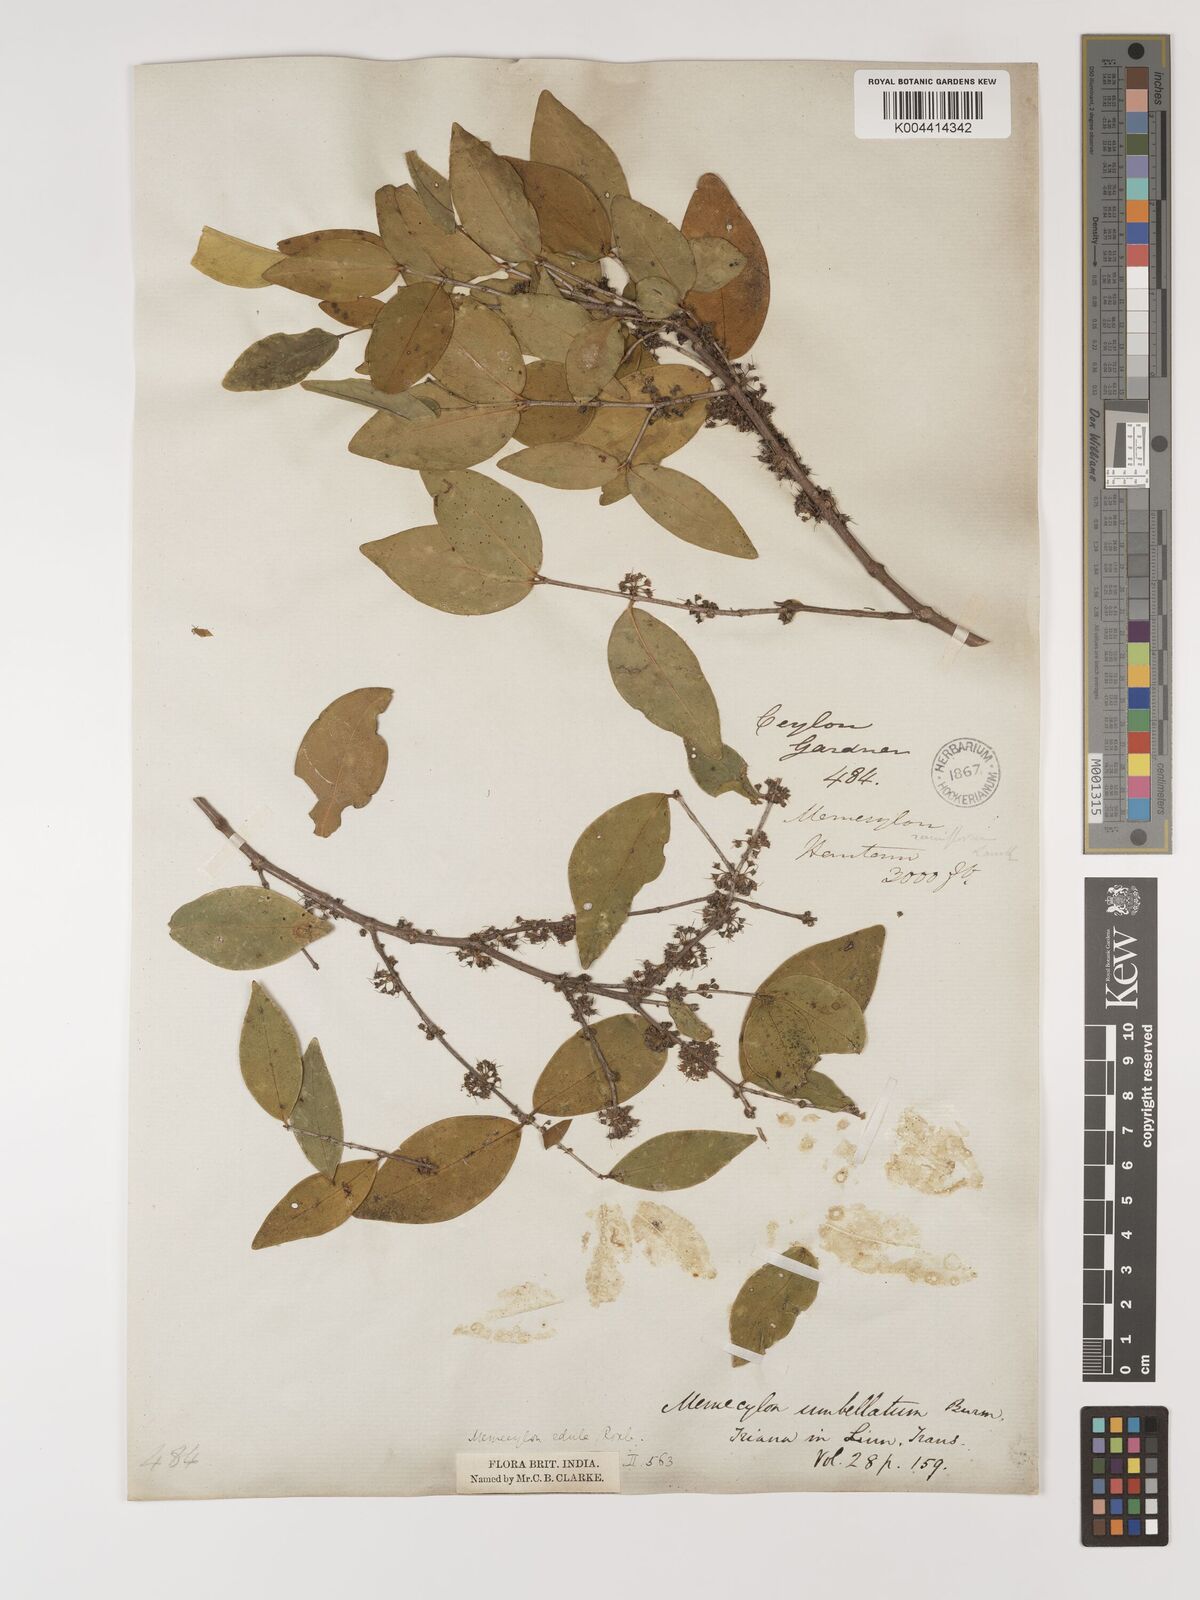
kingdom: Plantae
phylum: Tracheophyta
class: Magnoliopsida
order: Myrtales
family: Melastomataceae
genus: Memecylon
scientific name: Memecylon urceolatum
